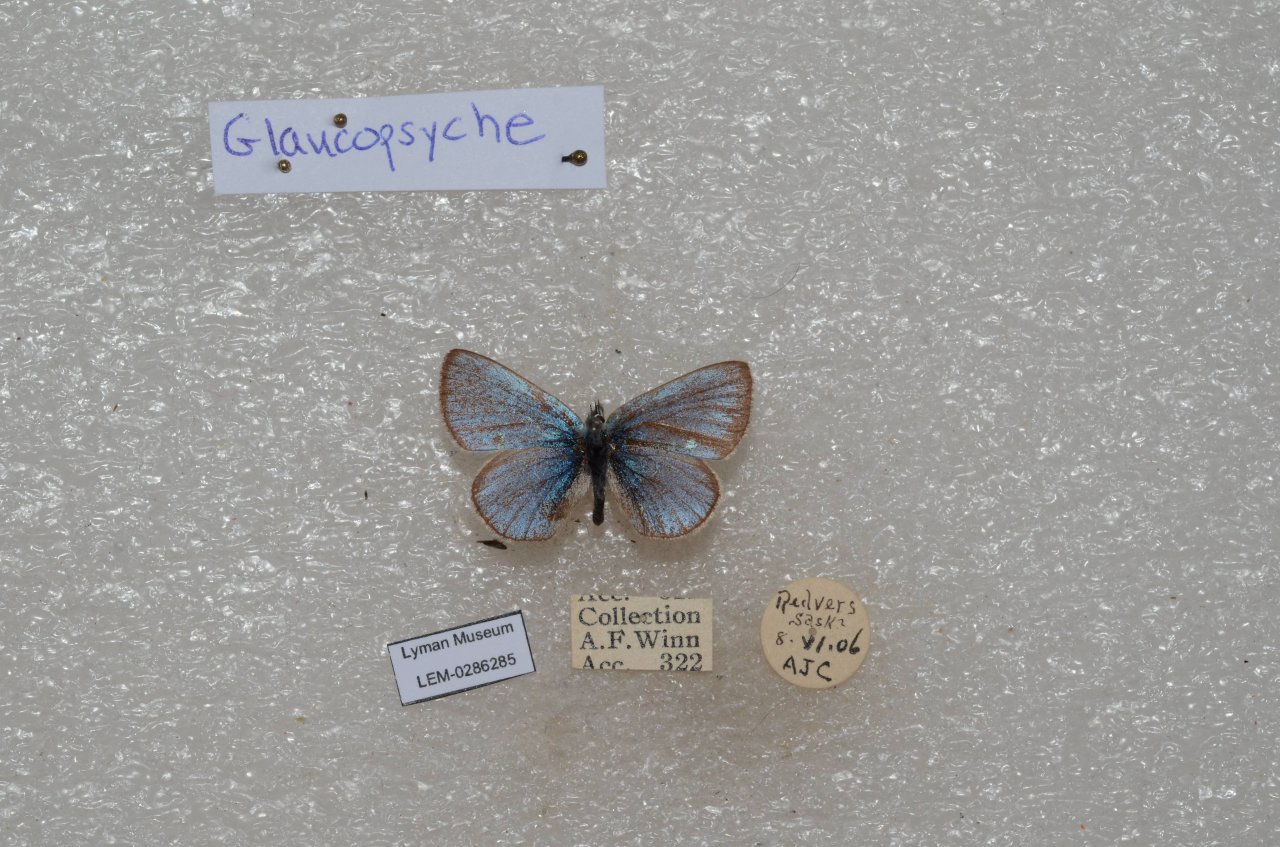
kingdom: Animalia
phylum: Arthropoda
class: Insecta
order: Lepidoptera
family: Lycaenidae
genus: Glaucopsyche
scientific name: Glaucopsyche lygdamus
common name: Silvery Blue
